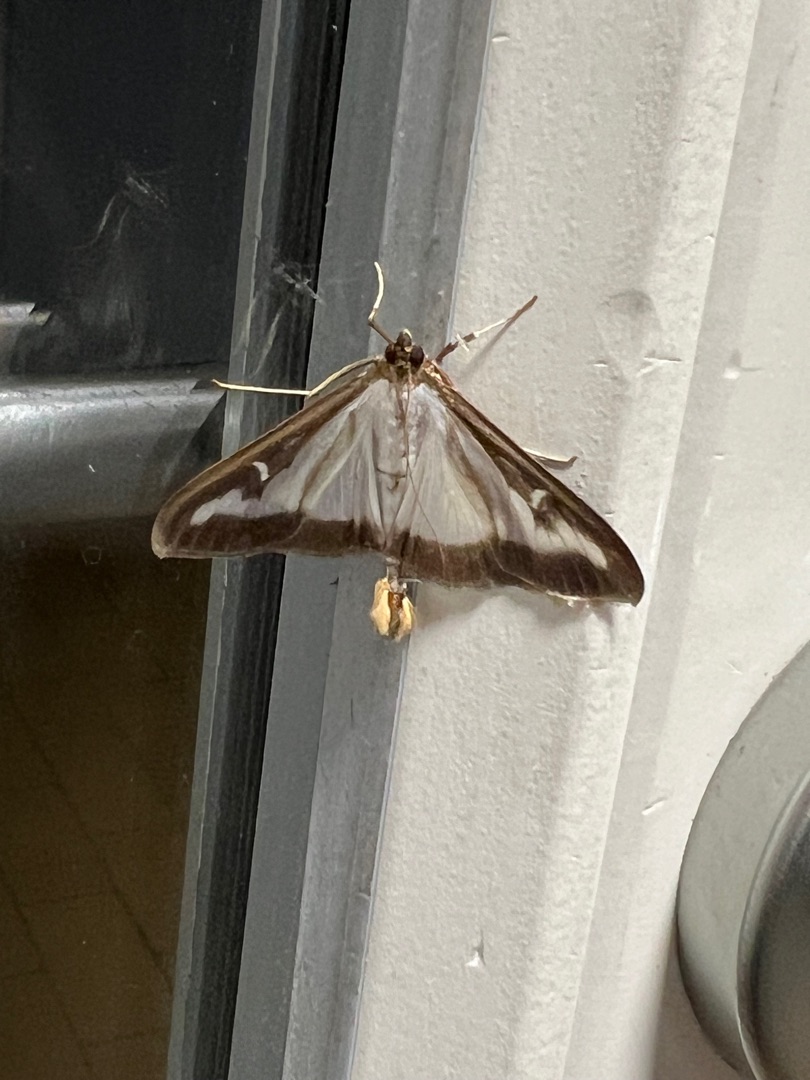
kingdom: Animalia
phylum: Arthropoda
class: Insecta
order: Lepidoptera
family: Crambidae
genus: Cydalima
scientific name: Cydalima perspectalis
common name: Buksbomhalvmøl
